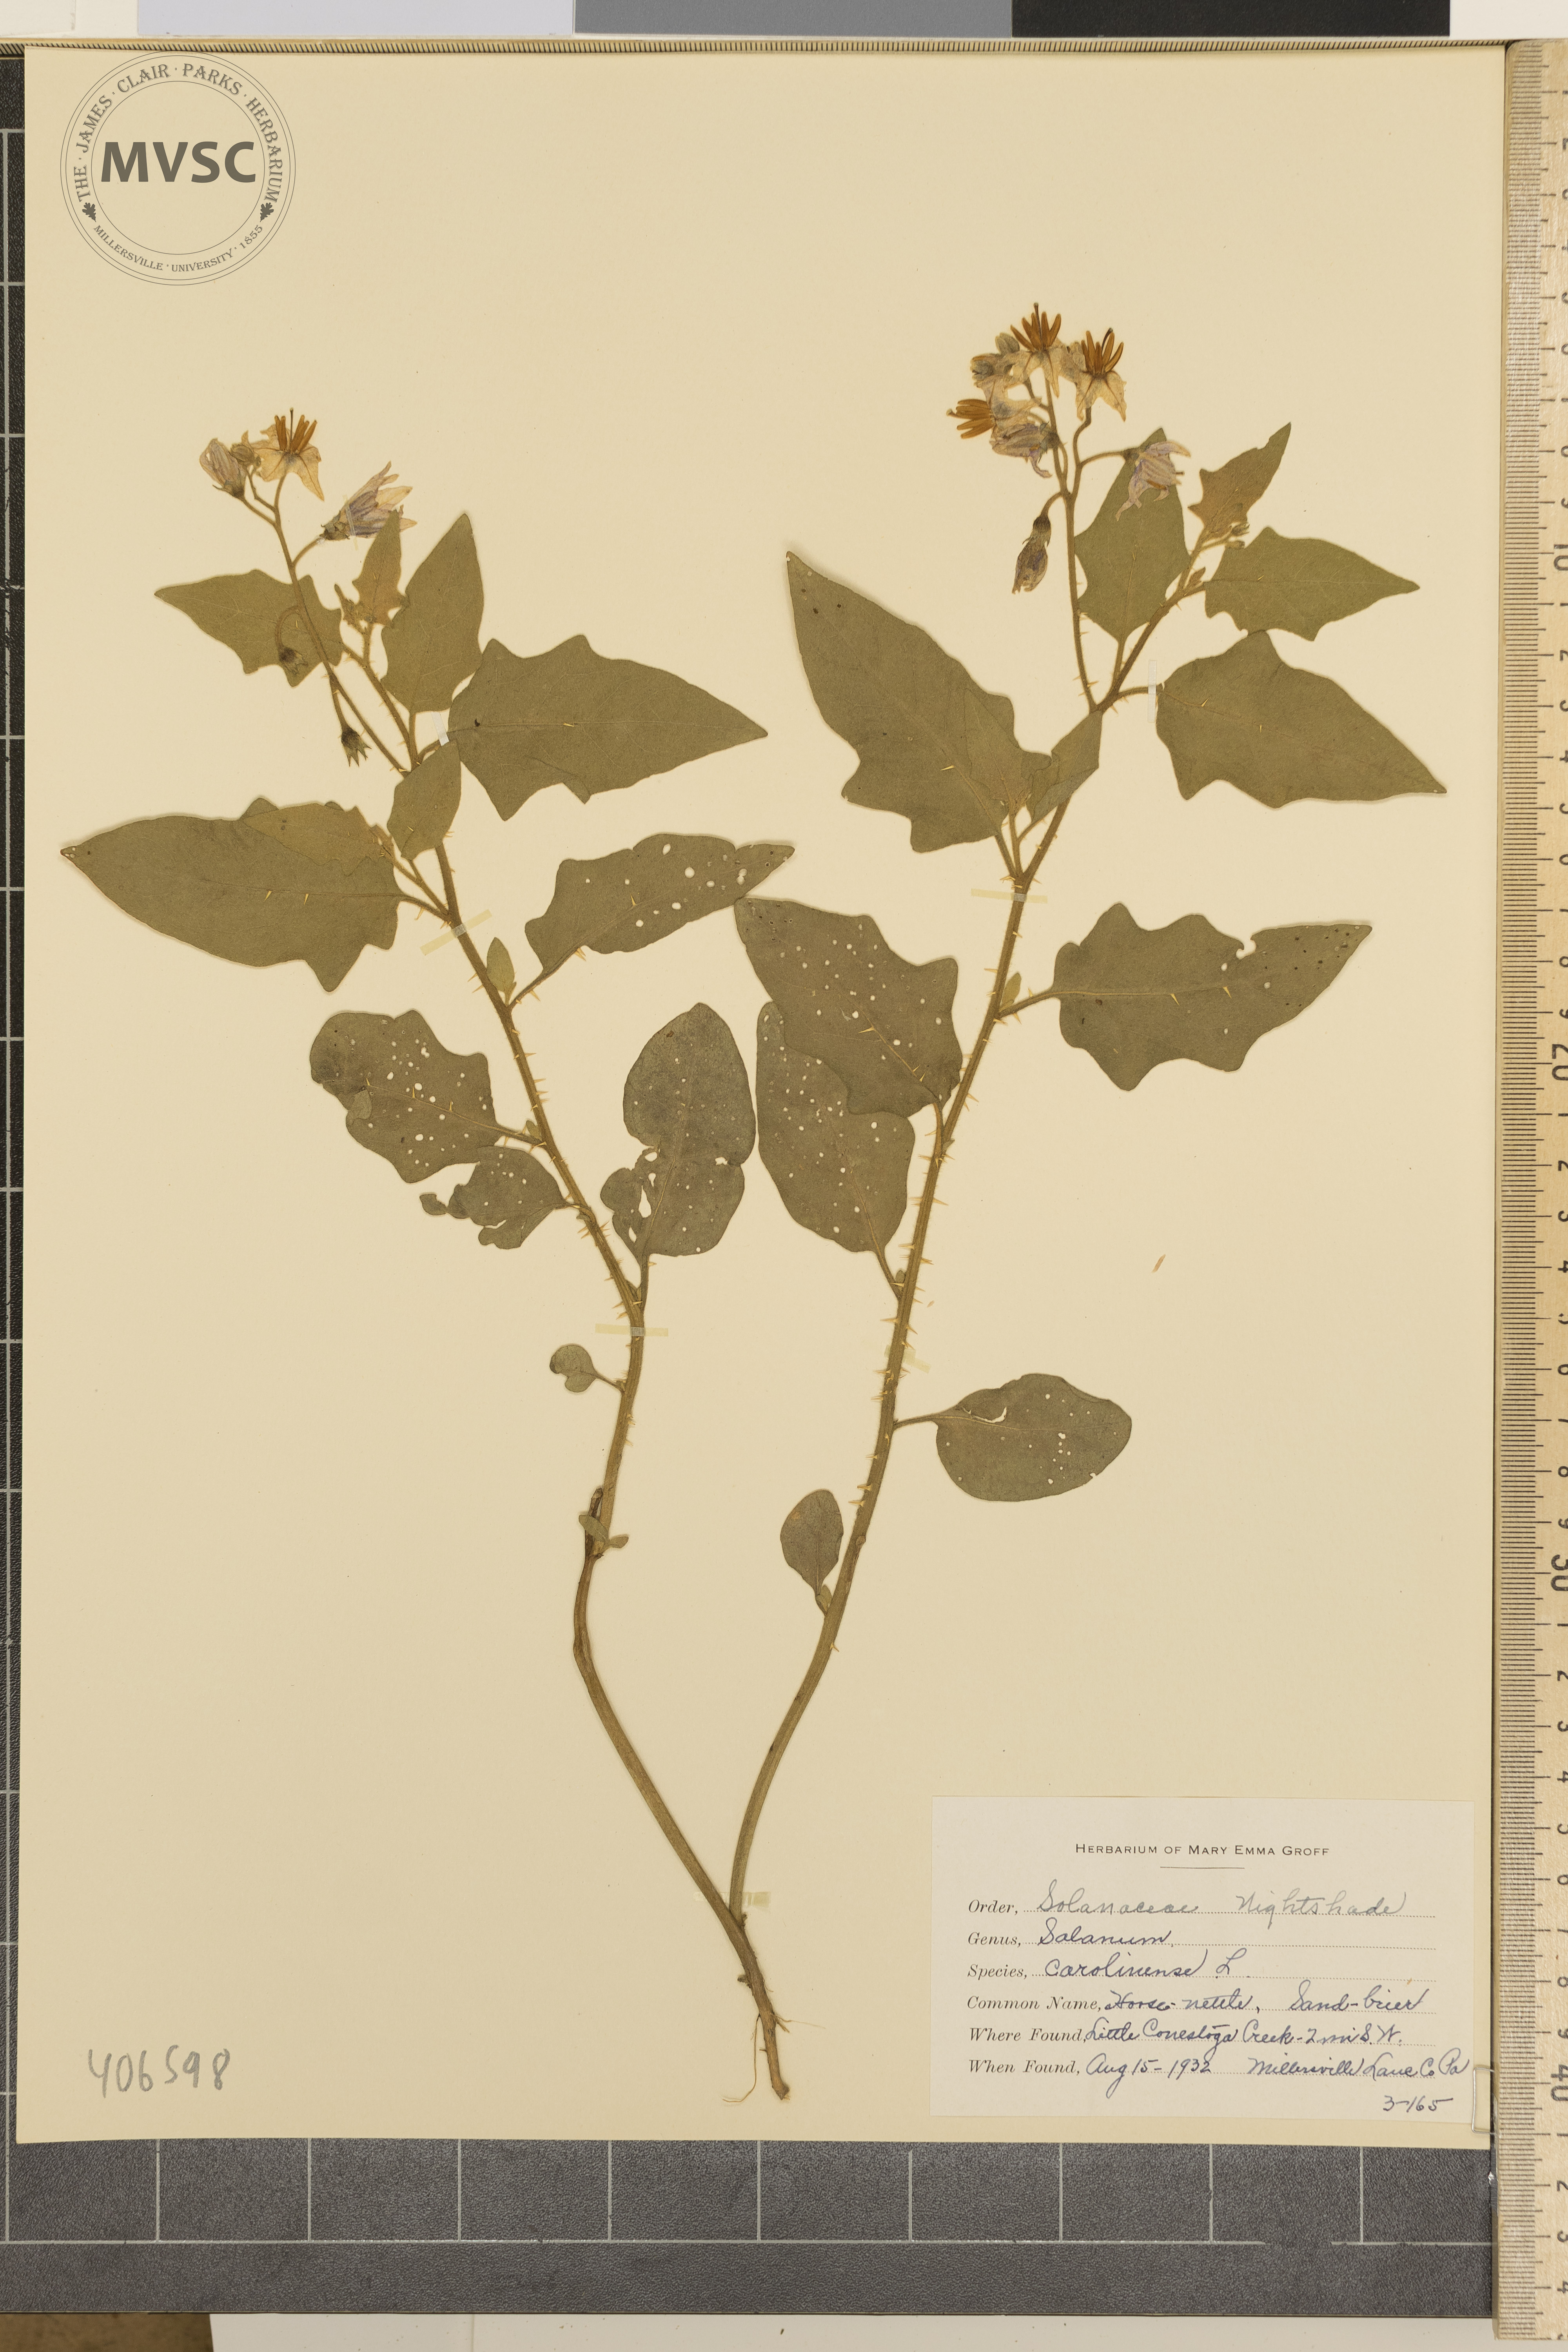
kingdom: Plantae
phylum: Tracheophyta
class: Magnoliopsida
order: Solanales
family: Solanaceae
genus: Solanum
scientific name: Solanum carolinense
